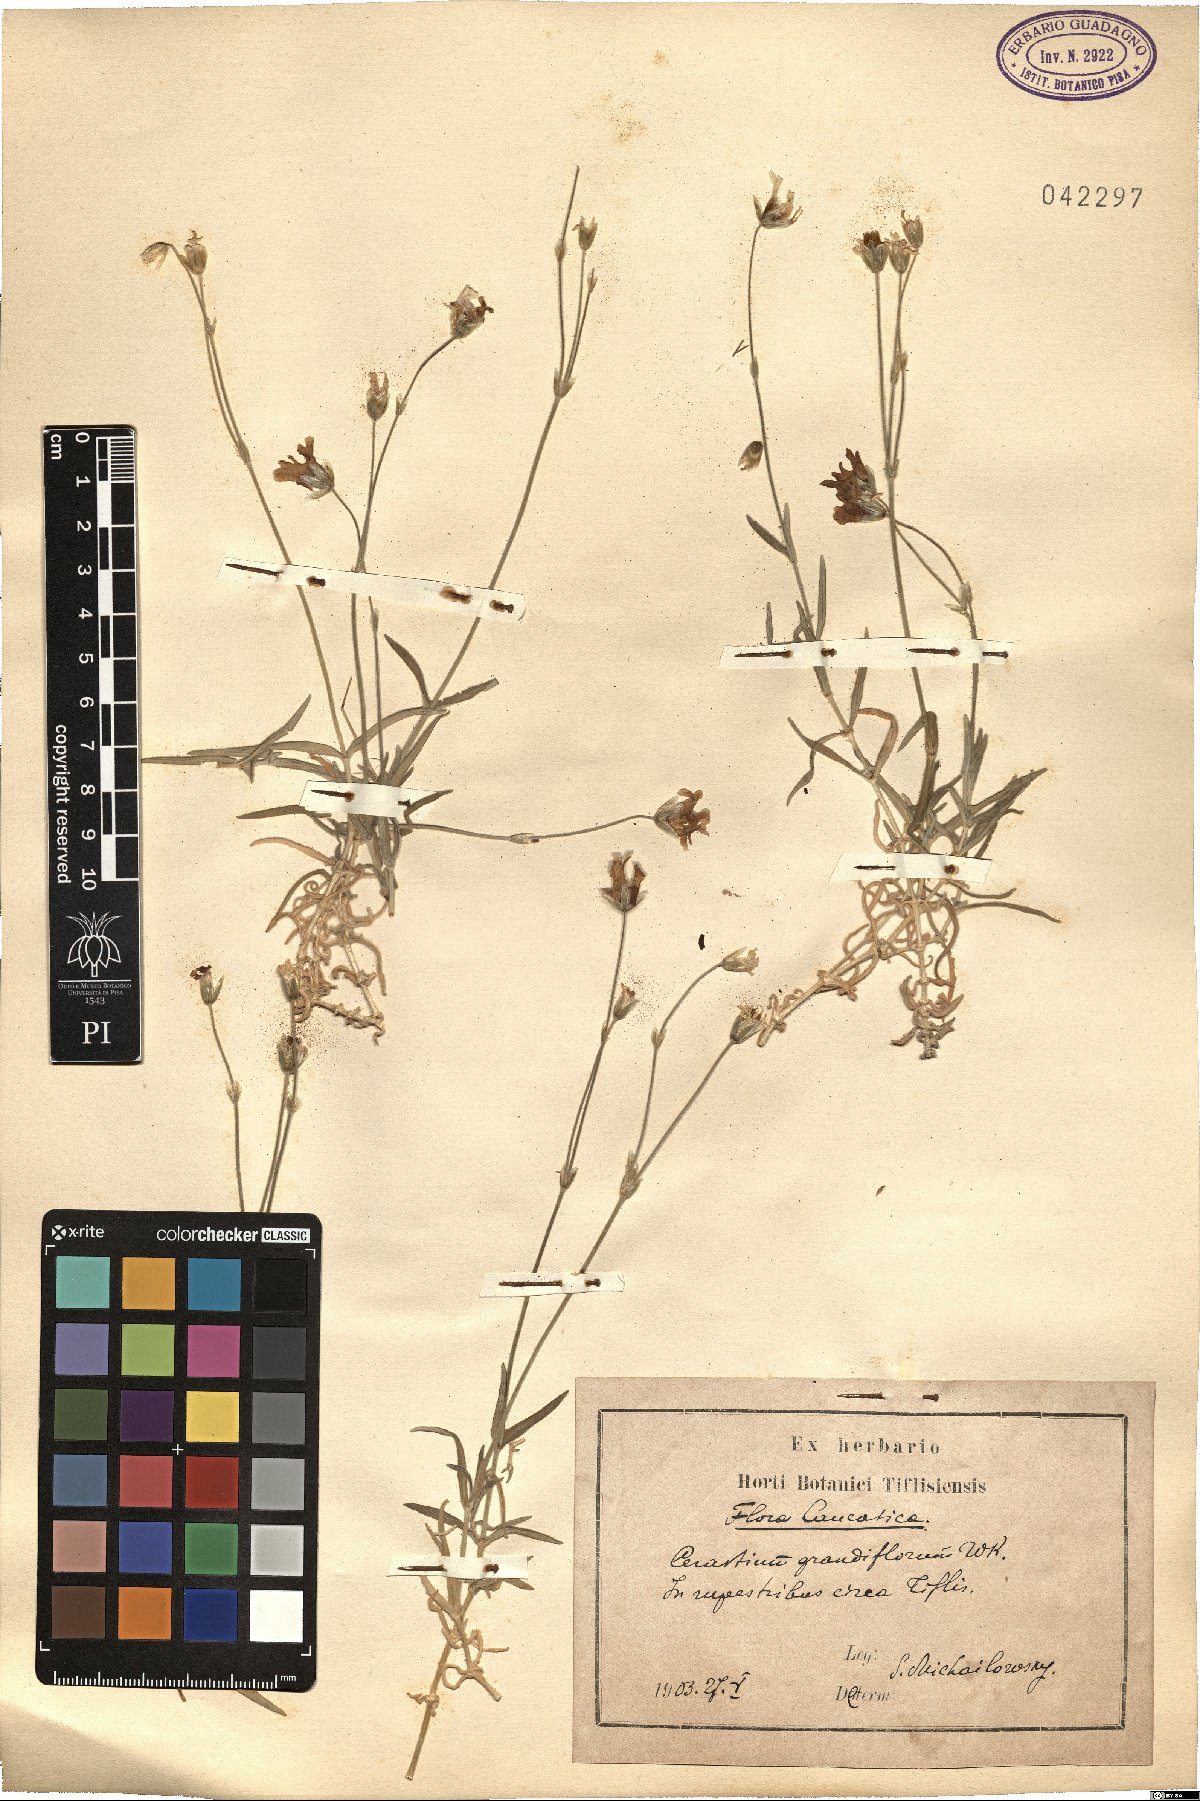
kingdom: Plantae
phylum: Tracheophyta
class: Magnoliopsida
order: Caryophyllales
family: Caryophyllaceae
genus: Cerastium
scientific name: Cerastium grandiflorum
